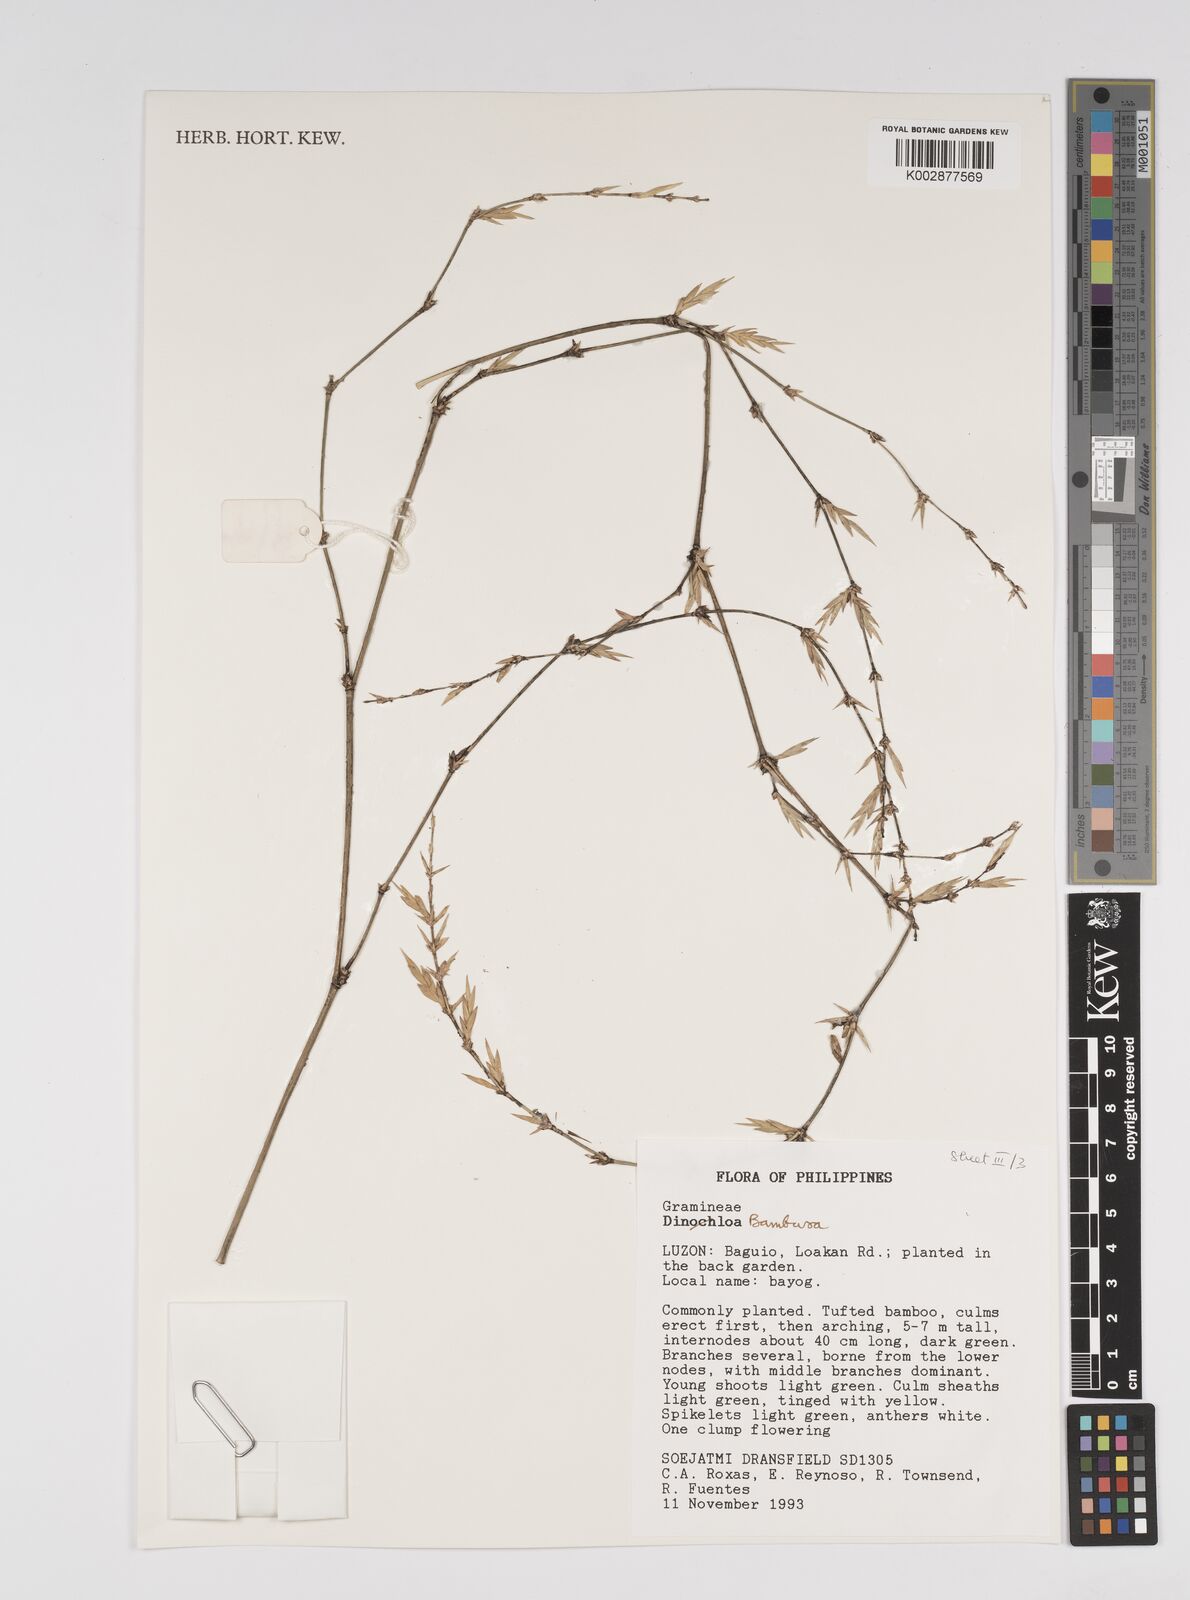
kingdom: Plantae
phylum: Tracheophyta
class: Liliopsida
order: Poales
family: Poaceae
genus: Bambusa
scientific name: Bambusa
